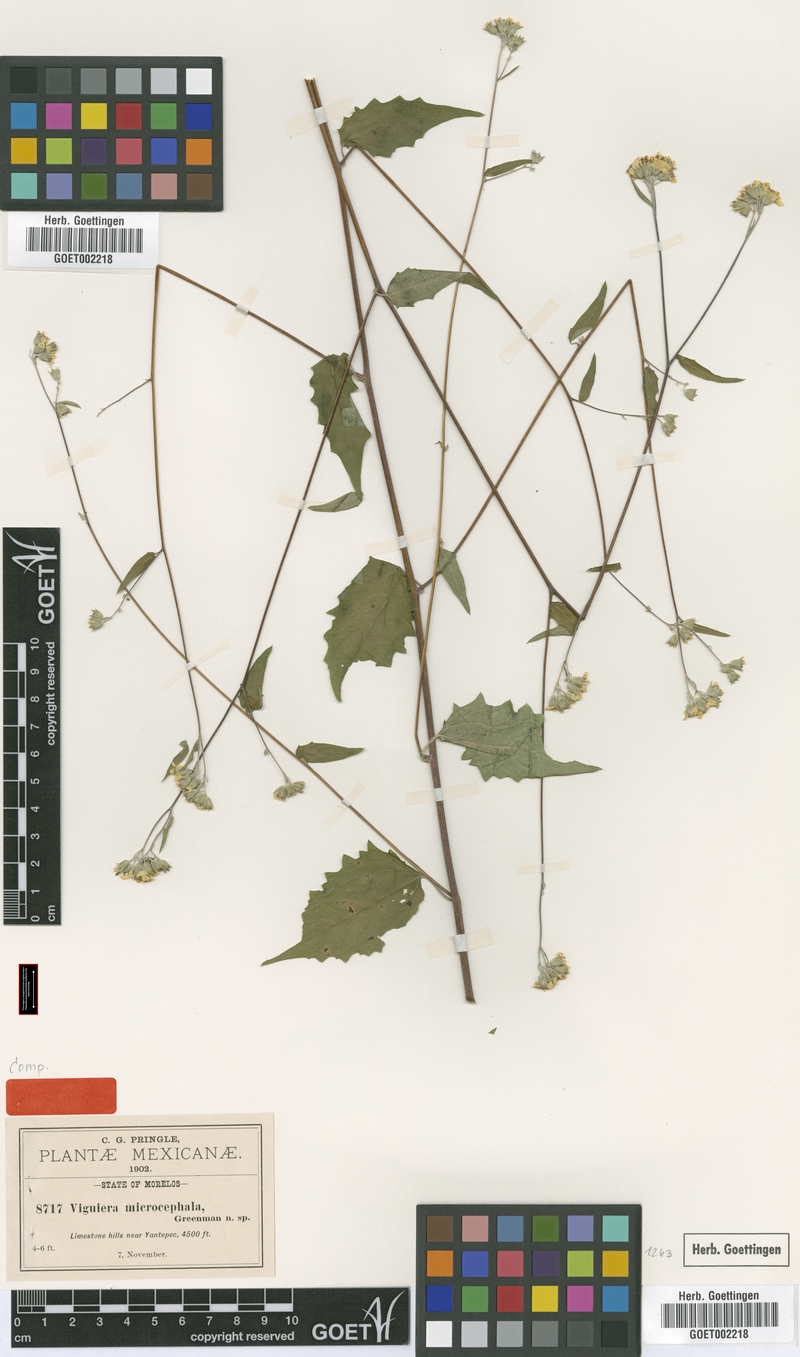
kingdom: Plantae
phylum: Tracheophyta
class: Magnoliopsida
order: Asterales
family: Asteraceae
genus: Hymenostephium
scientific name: Hymenostephium uniseriatum
